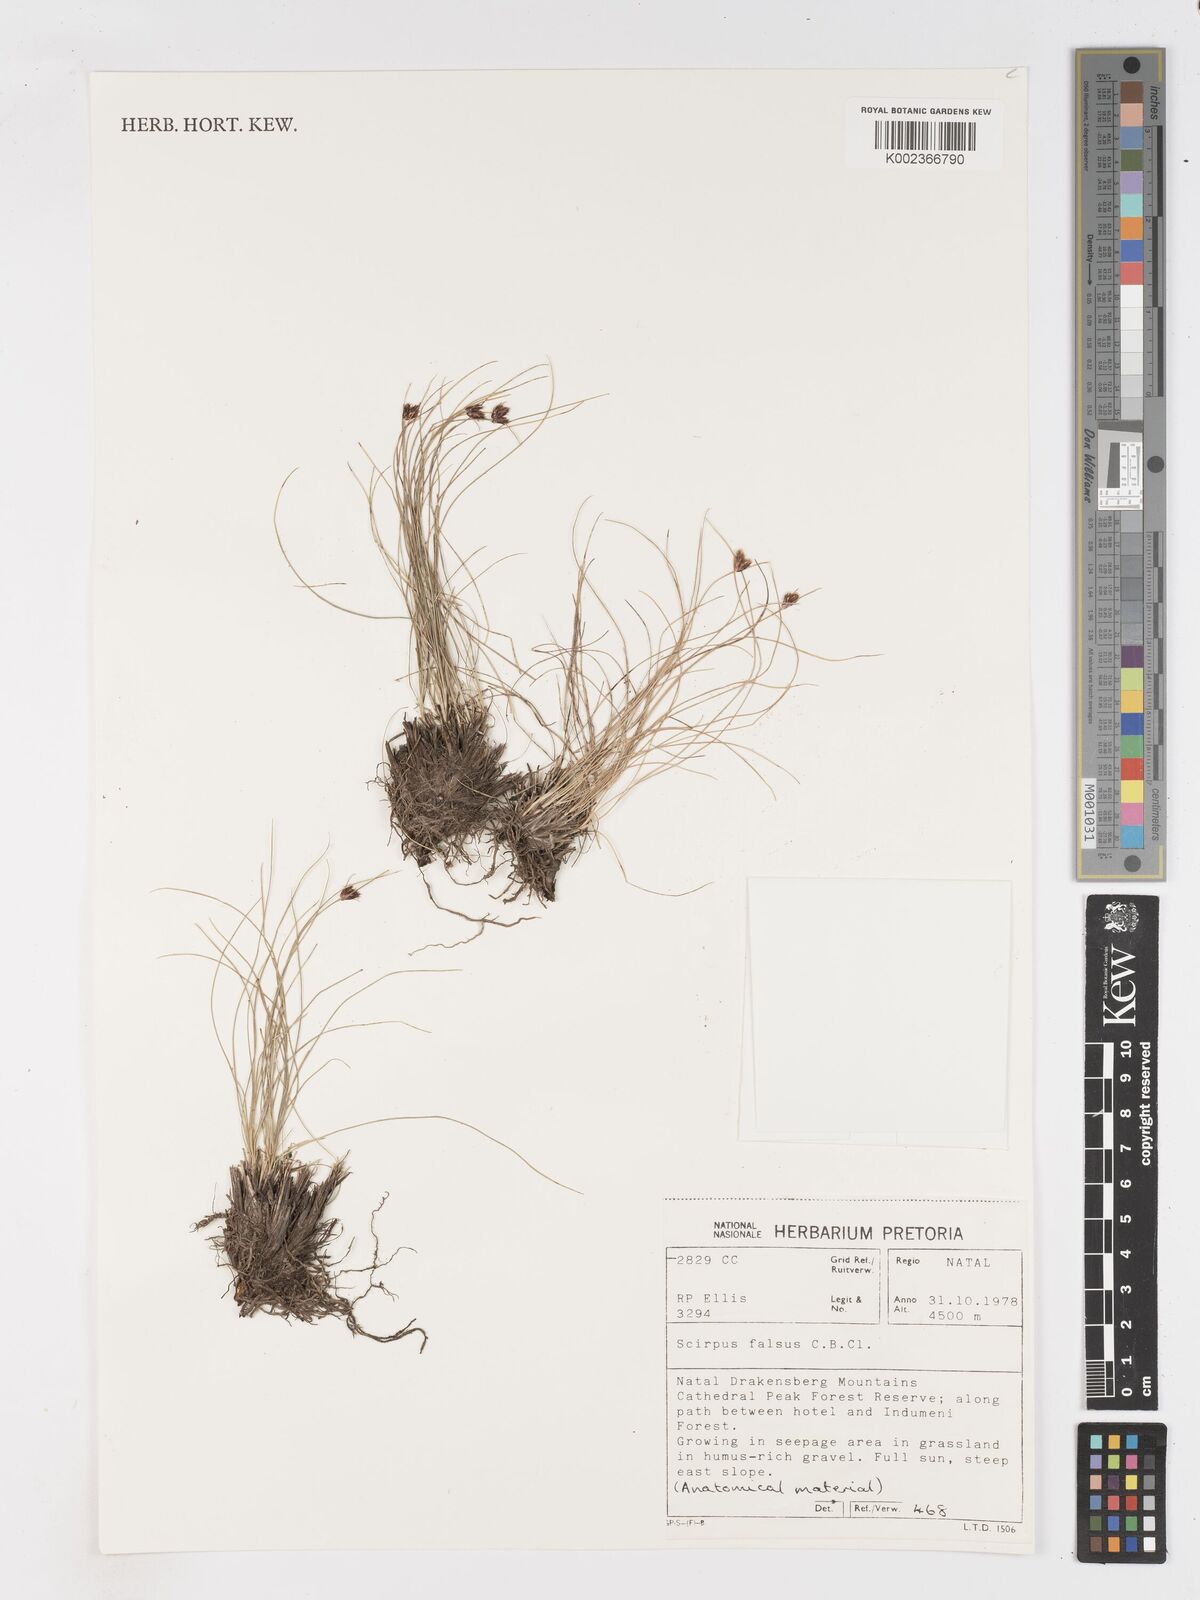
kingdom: Plantae
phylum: Tracheophyta
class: Liliopsida
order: Poales
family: Cyperaceae
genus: Dracoscirpoides
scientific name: Dracoscirpoides falsa
